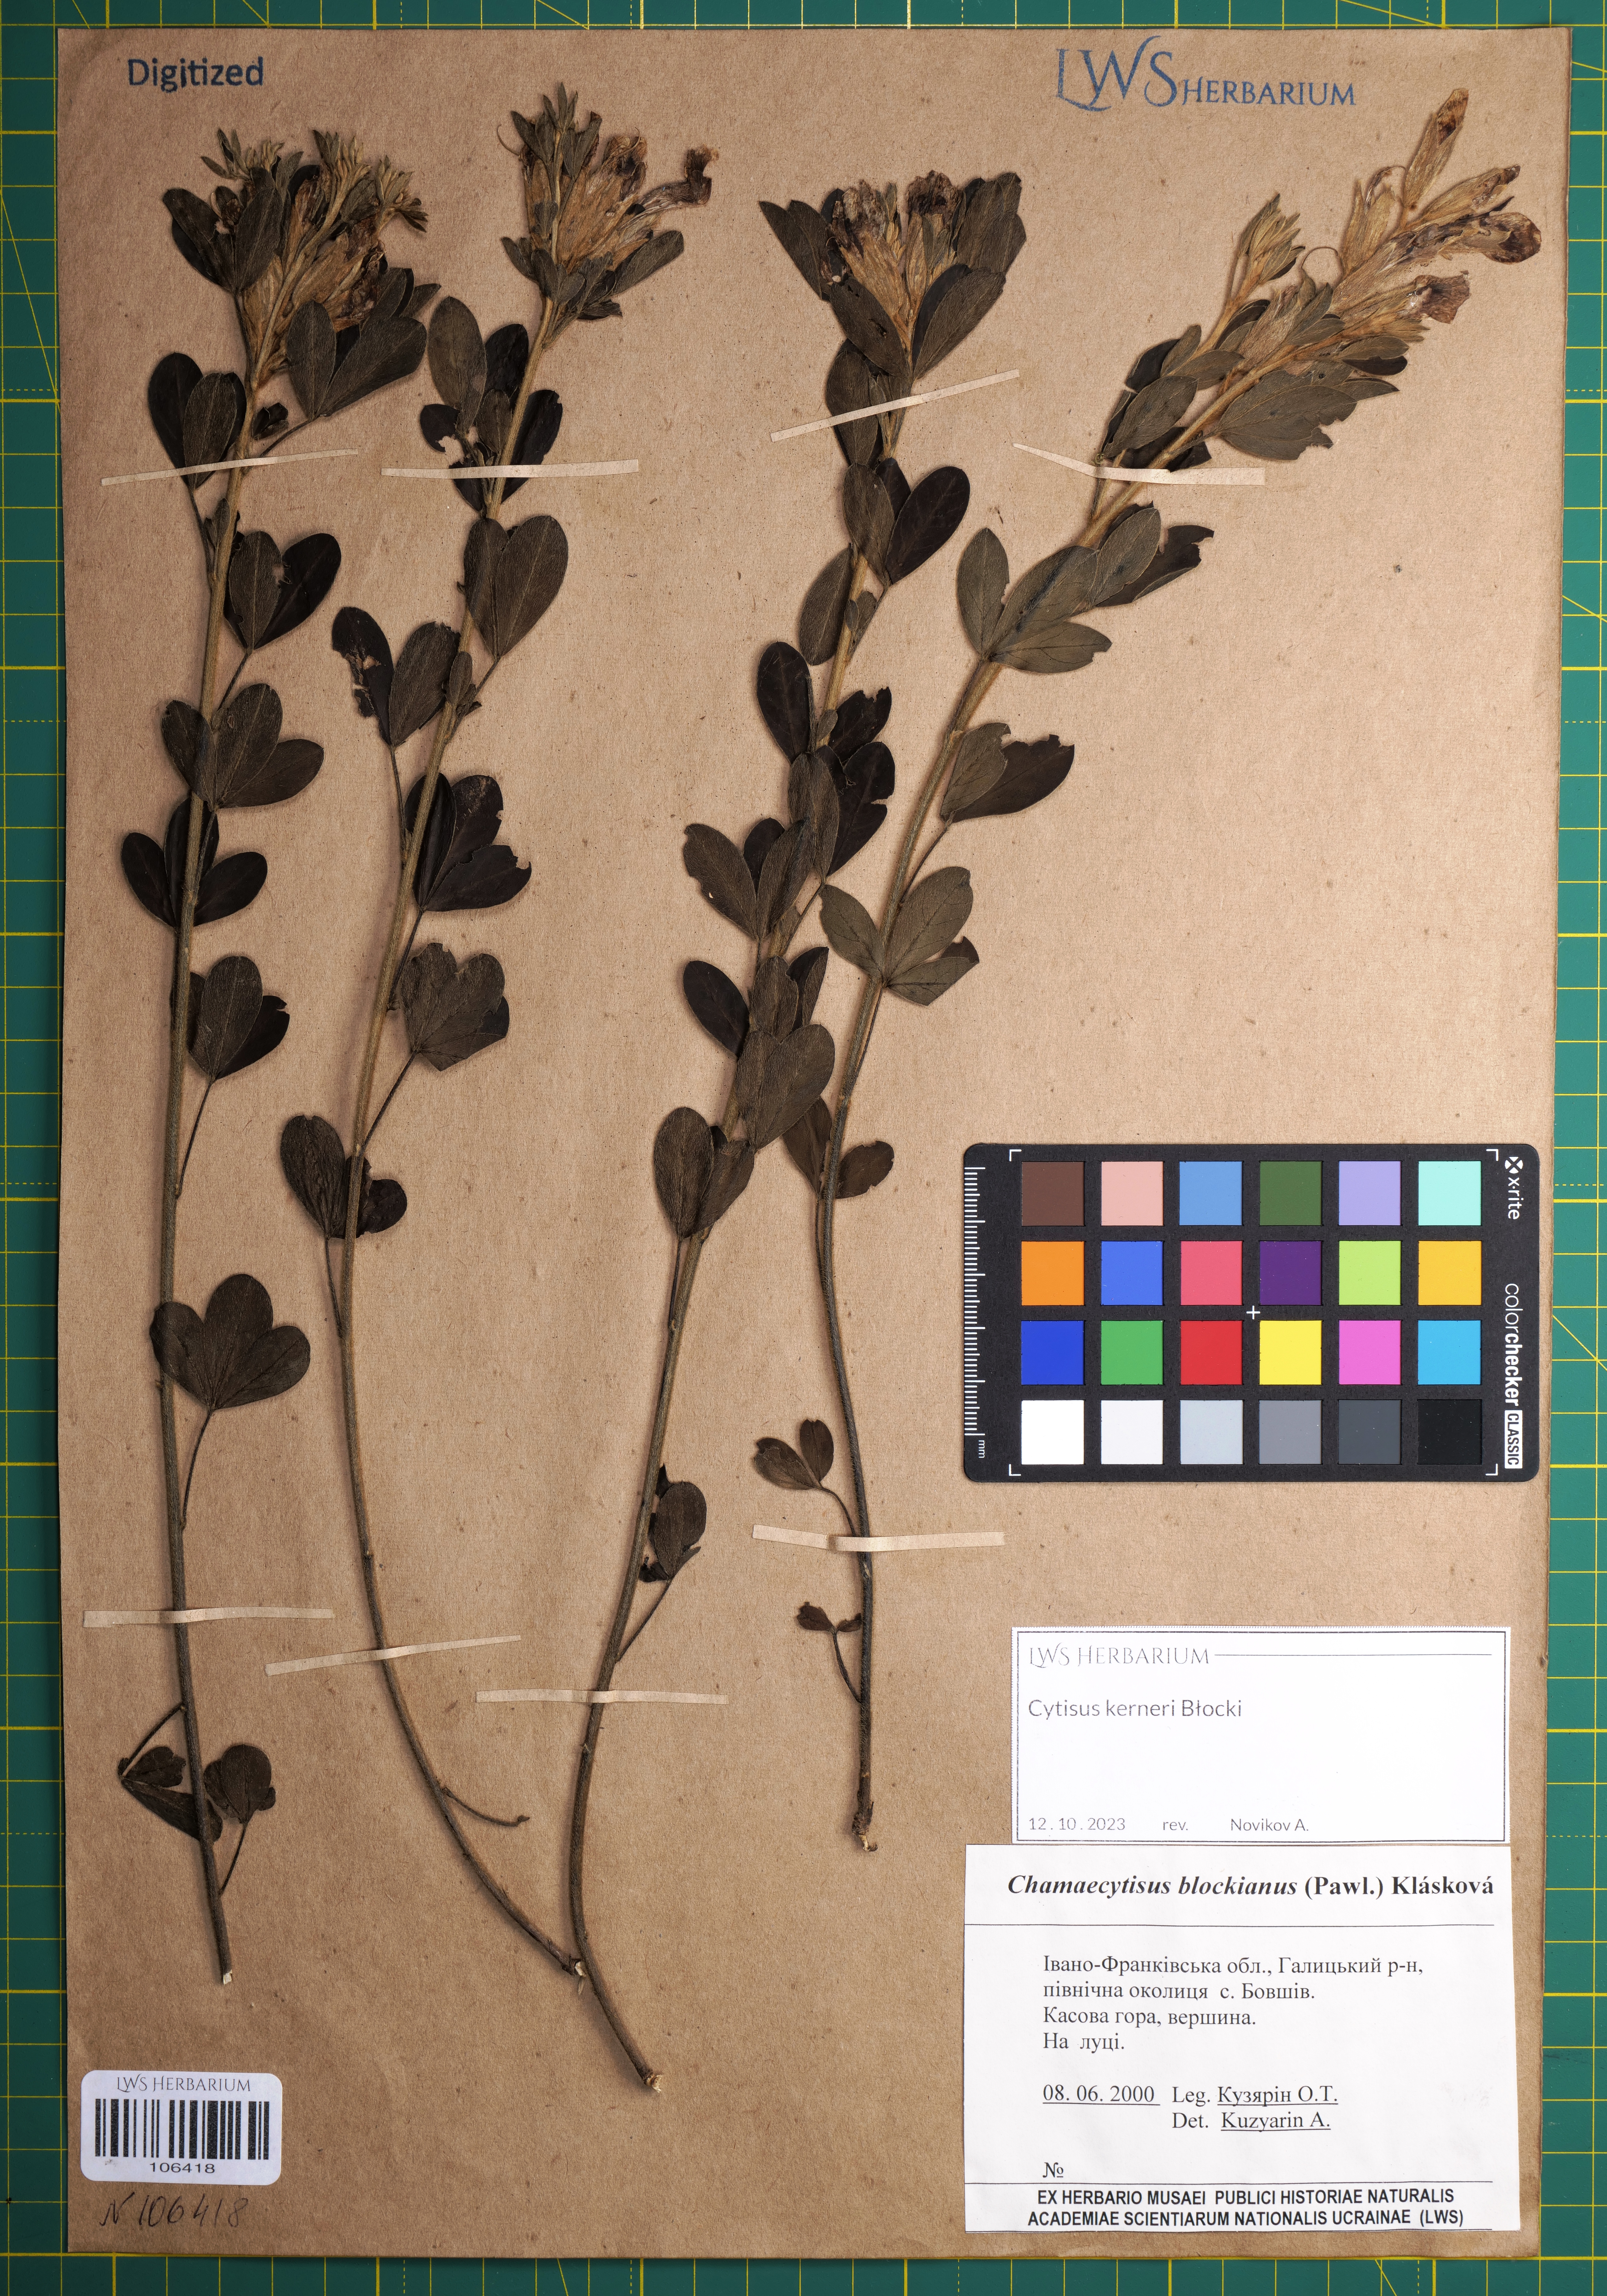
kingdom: Plantae
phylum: Tracheophyta
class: Magnoliopsida
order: Fabales
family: Fabaceae
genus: Cytisus
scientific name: Cytisus kerneri
